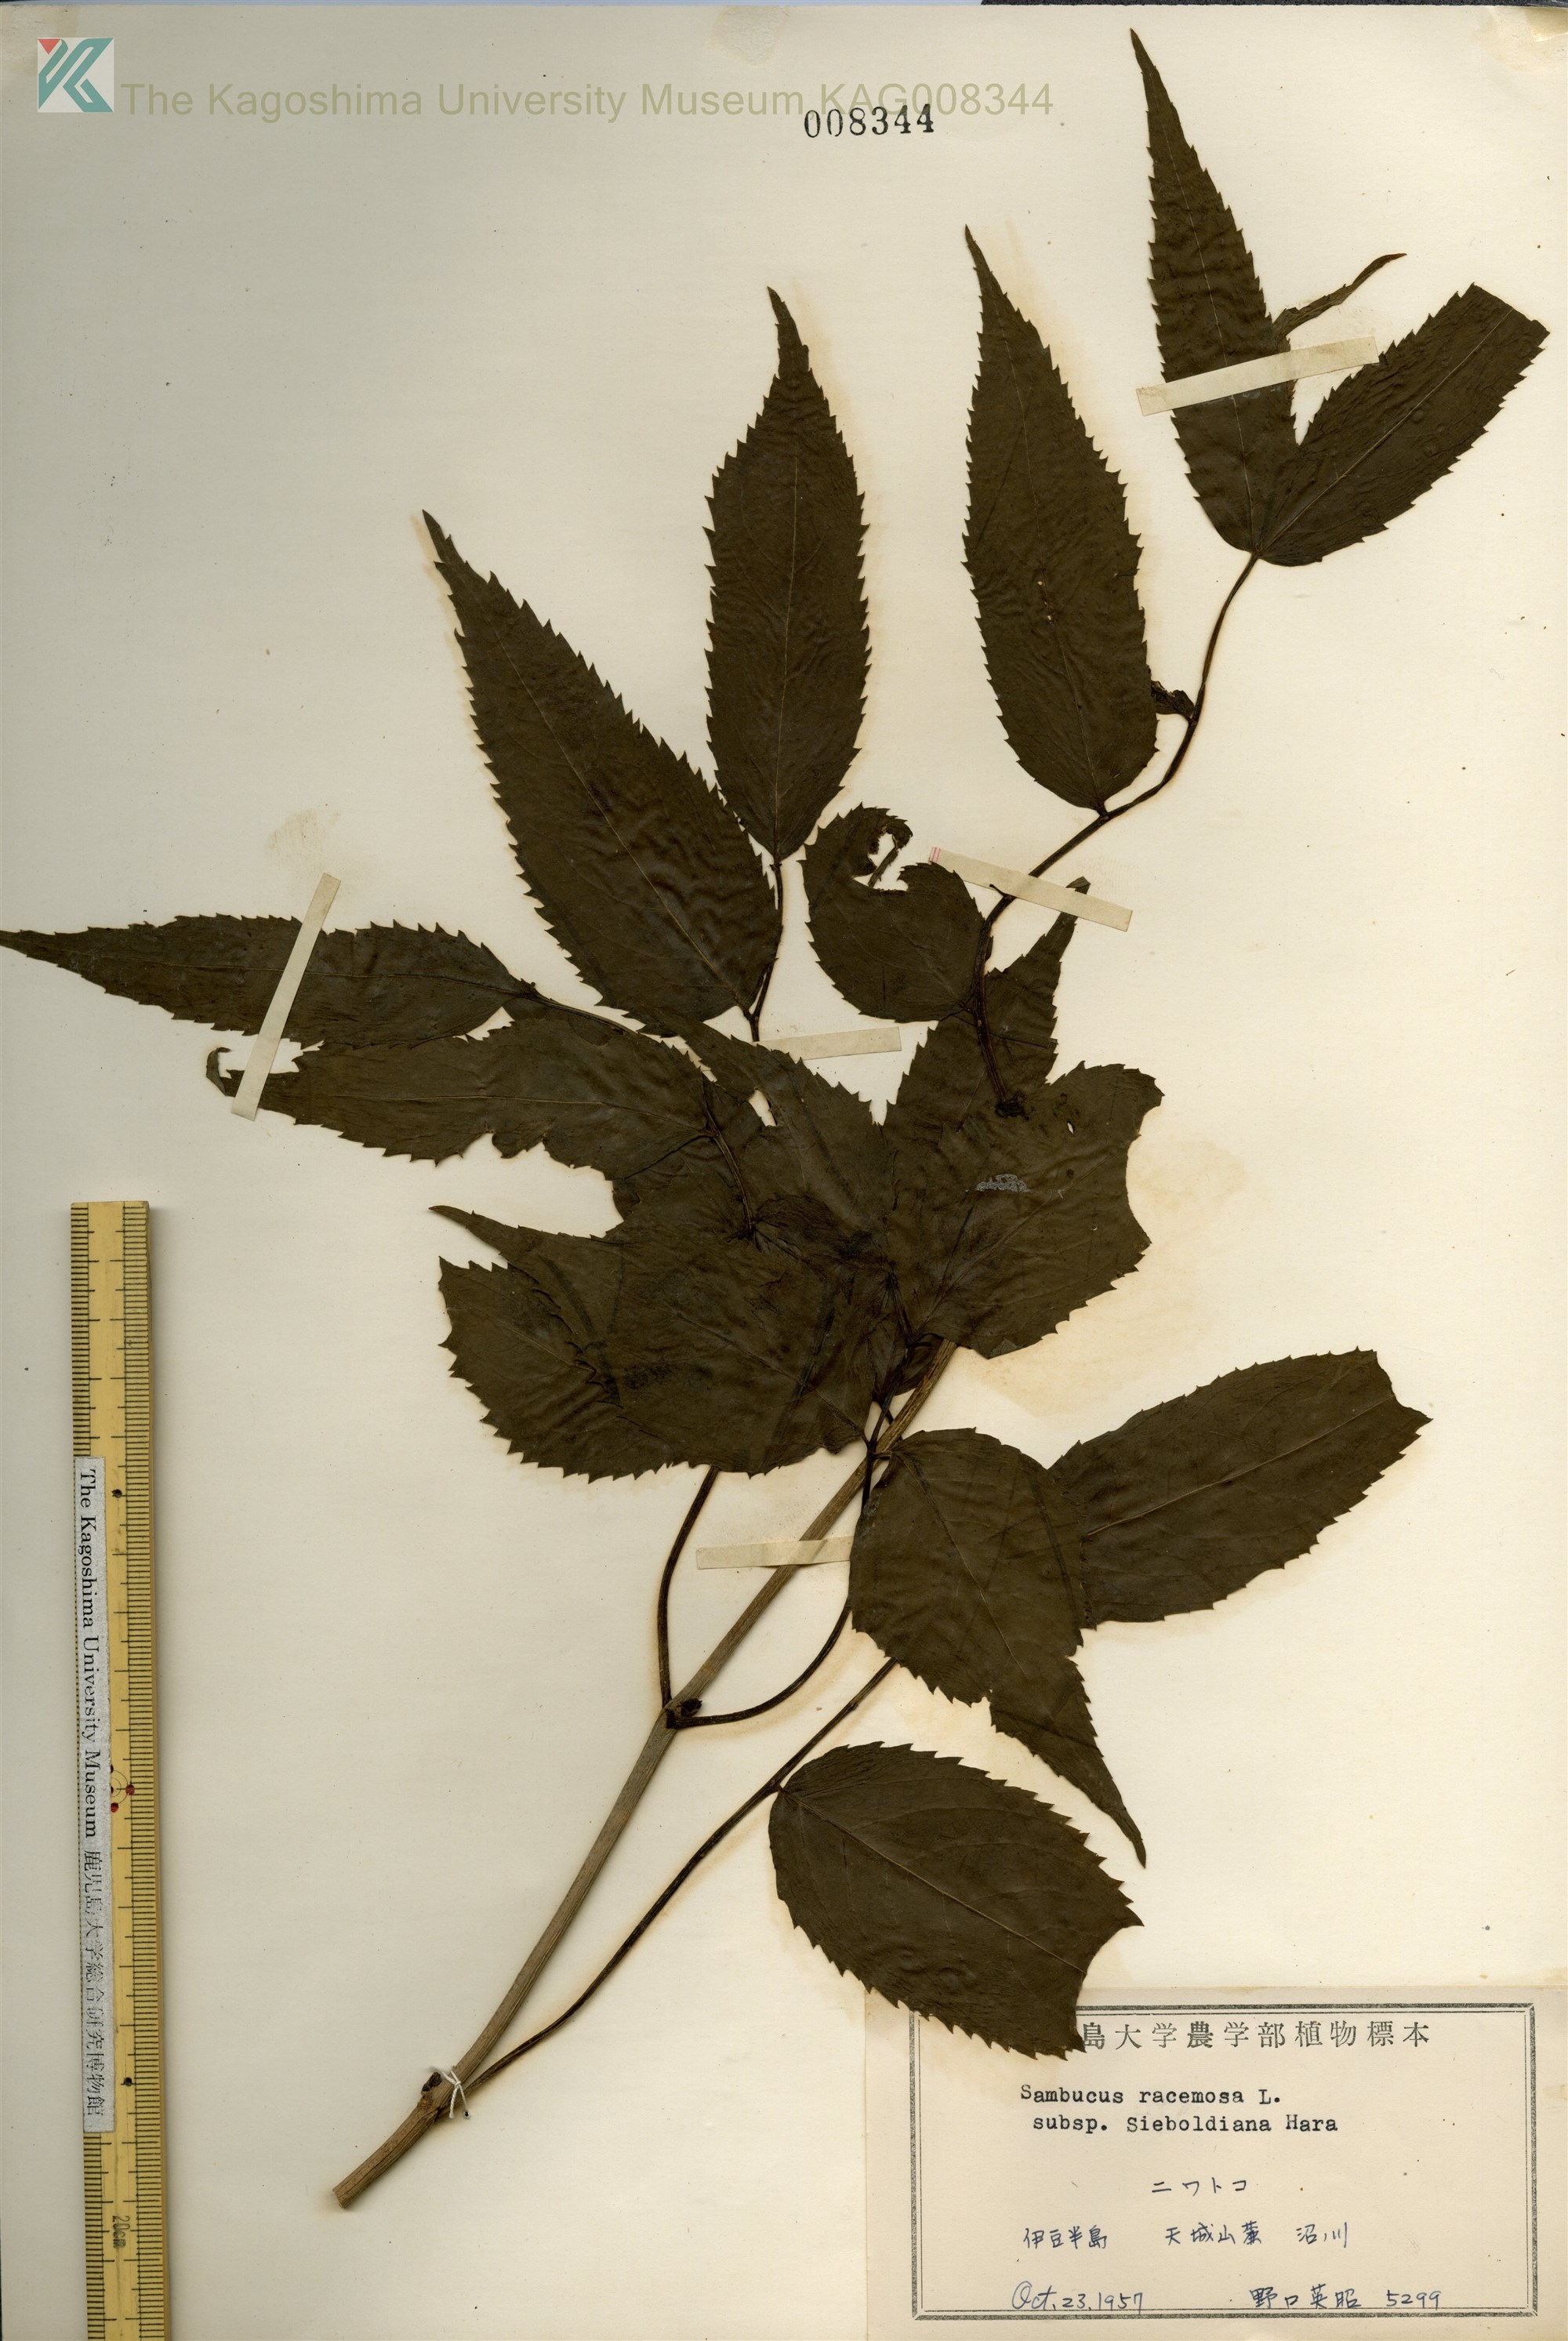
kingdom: Plantae
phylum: Tracheophyta
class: Magnoliopsida
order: Dipsacales
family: Viburnaceae
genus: Sambucus
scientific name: Sambucus sieboldiana
